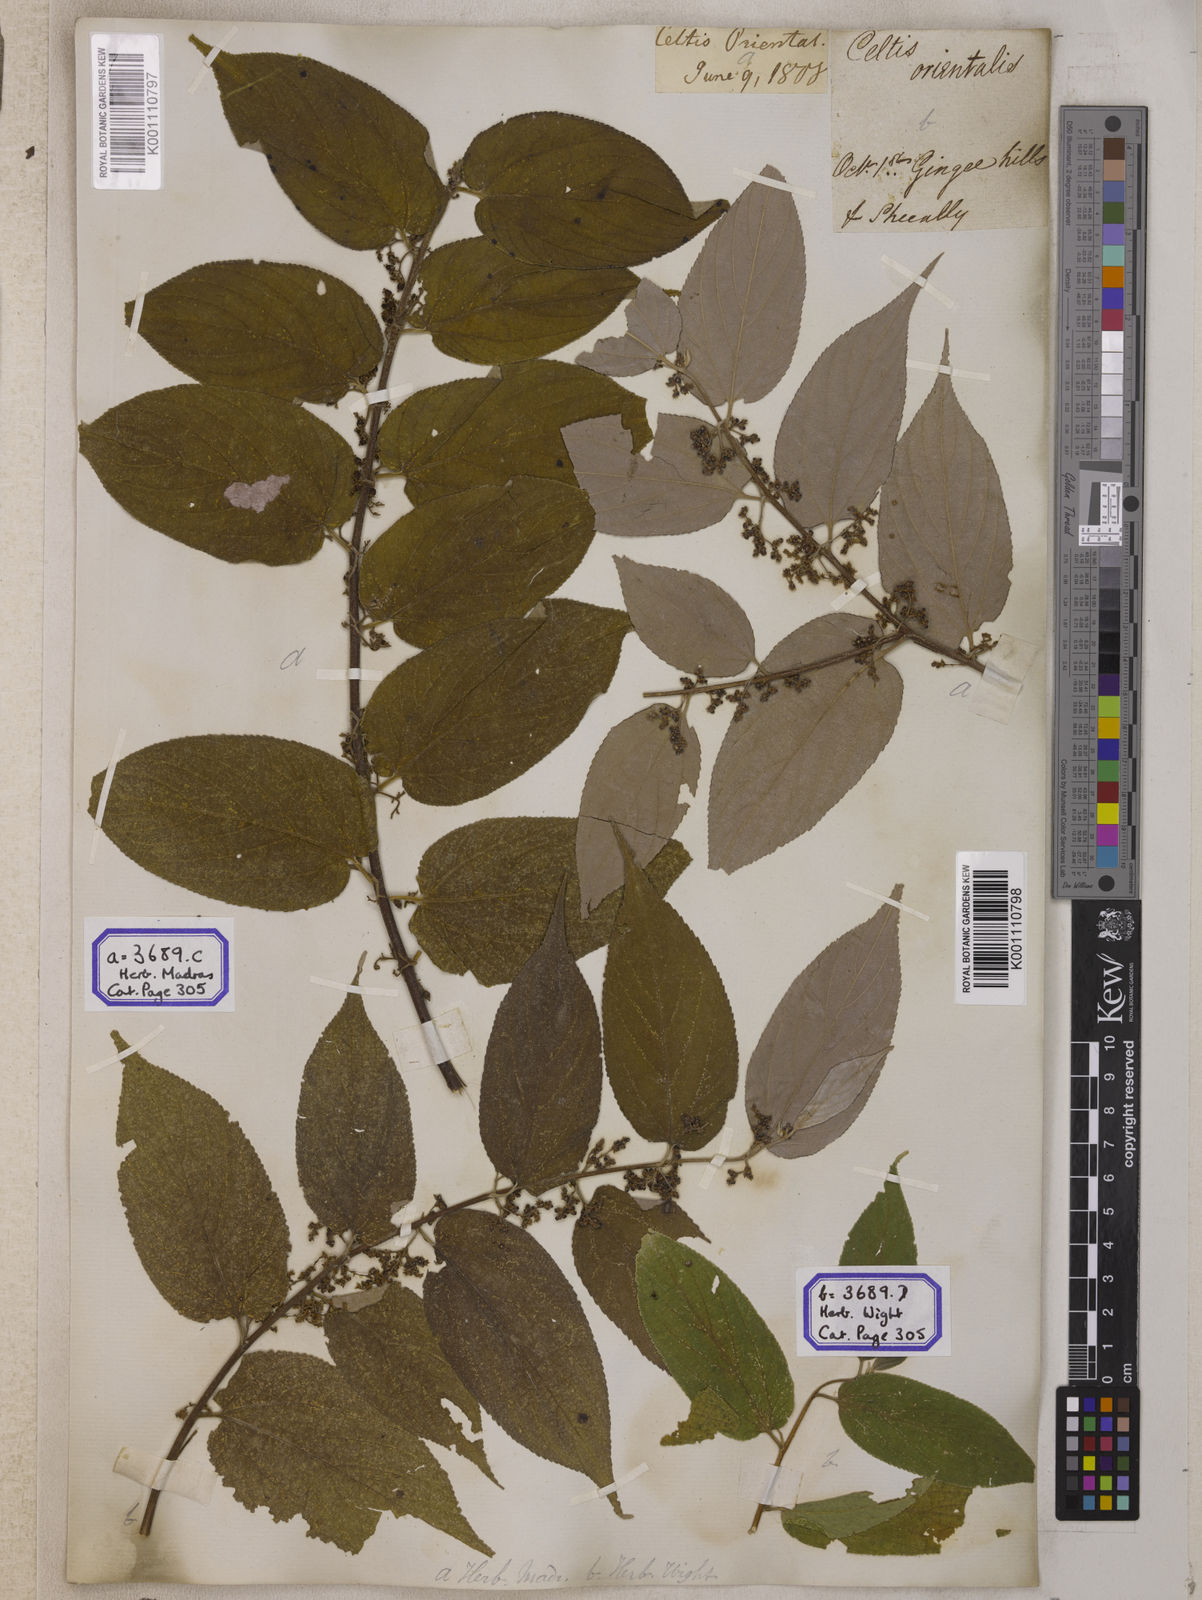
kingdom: Plantae
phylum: Tracheophyta
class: Magnoliopsida
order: Rosales
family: Cannabaceae
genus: Trema
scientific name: Trema orientale
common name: Indian charcoal tree
